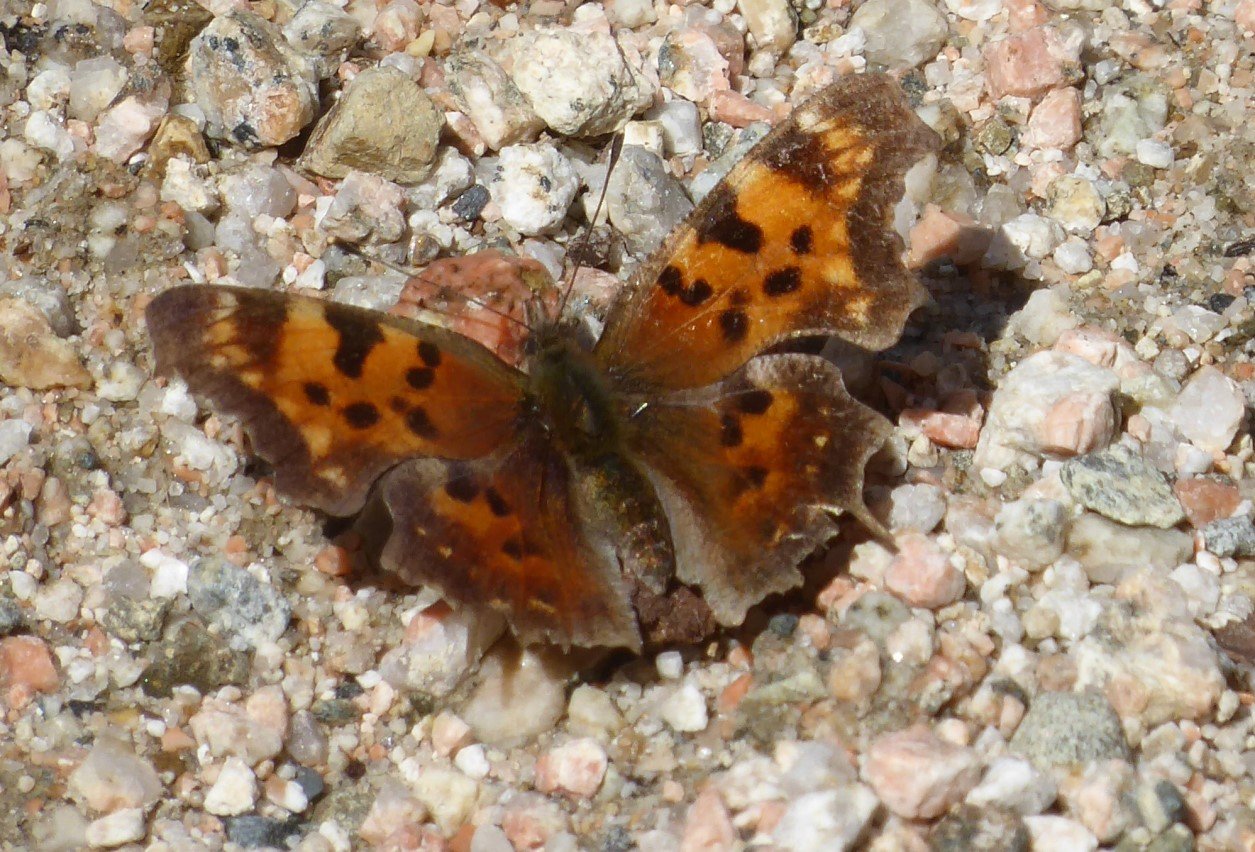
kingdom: Animalia
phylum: Arthropoda
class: Insecta
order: Lepidoptera
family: Nymphalidae
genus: Polygonia
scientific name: Polygonia faunus
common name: Green Comma
